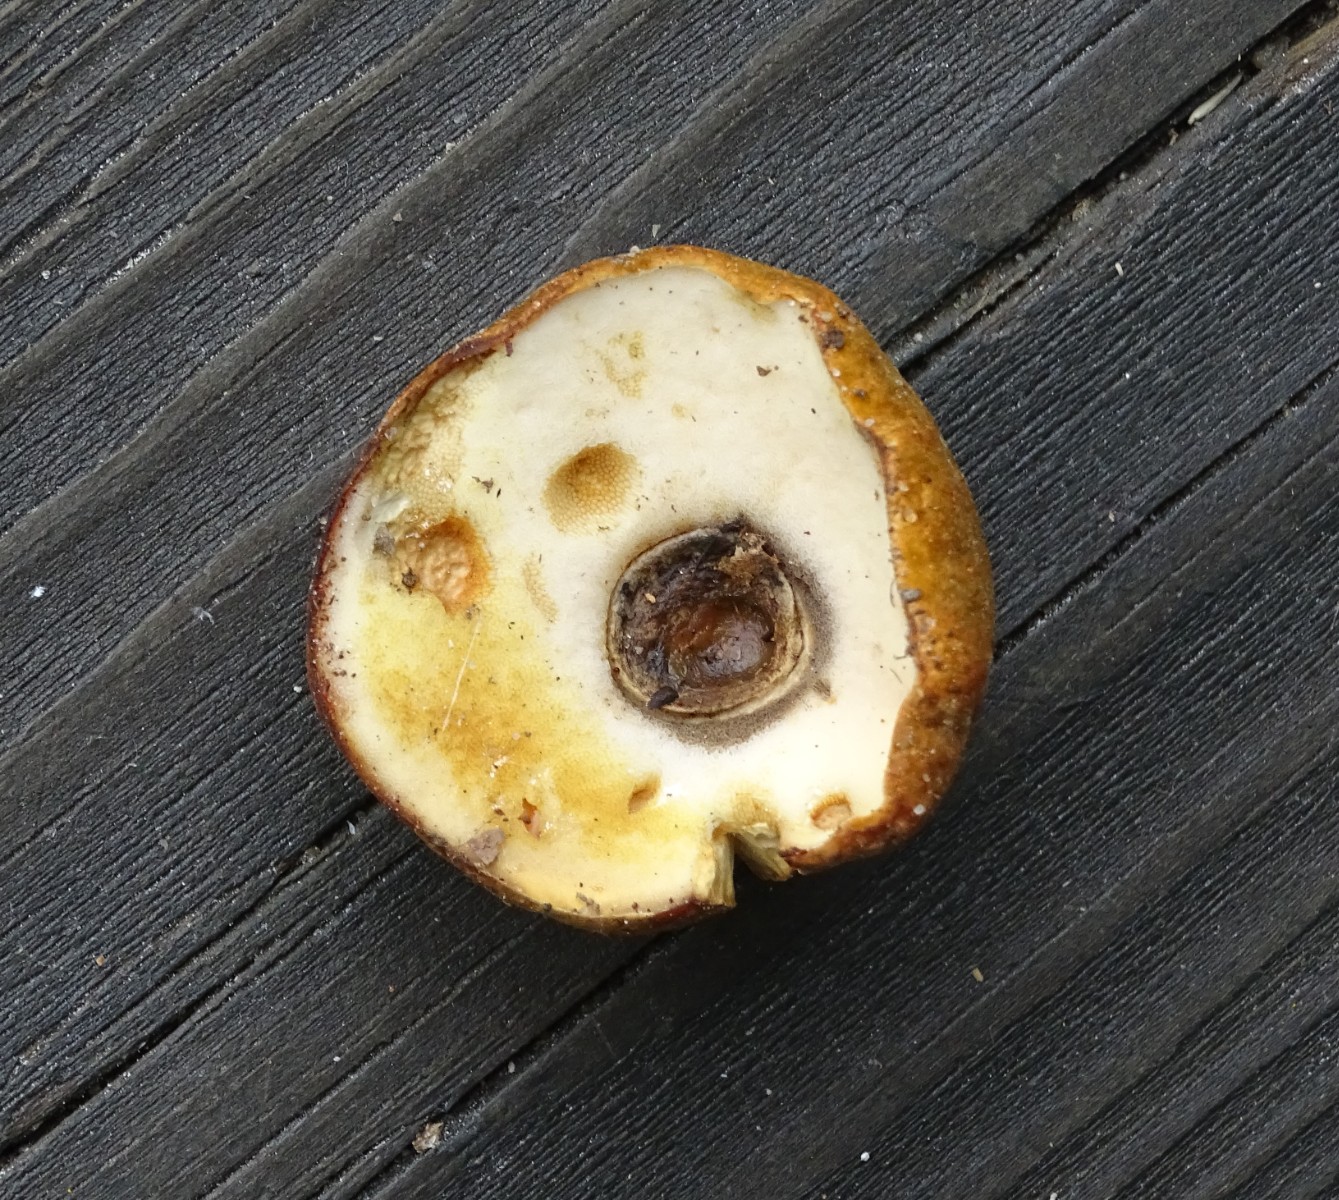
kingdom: Fungi
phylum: Basidiomycota
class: Agaricomycetes
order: Boletales
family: Gyroporaceae
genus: Gyroporus
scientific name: Gyroporus castaneus
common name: kastanie-kammerrørhat
